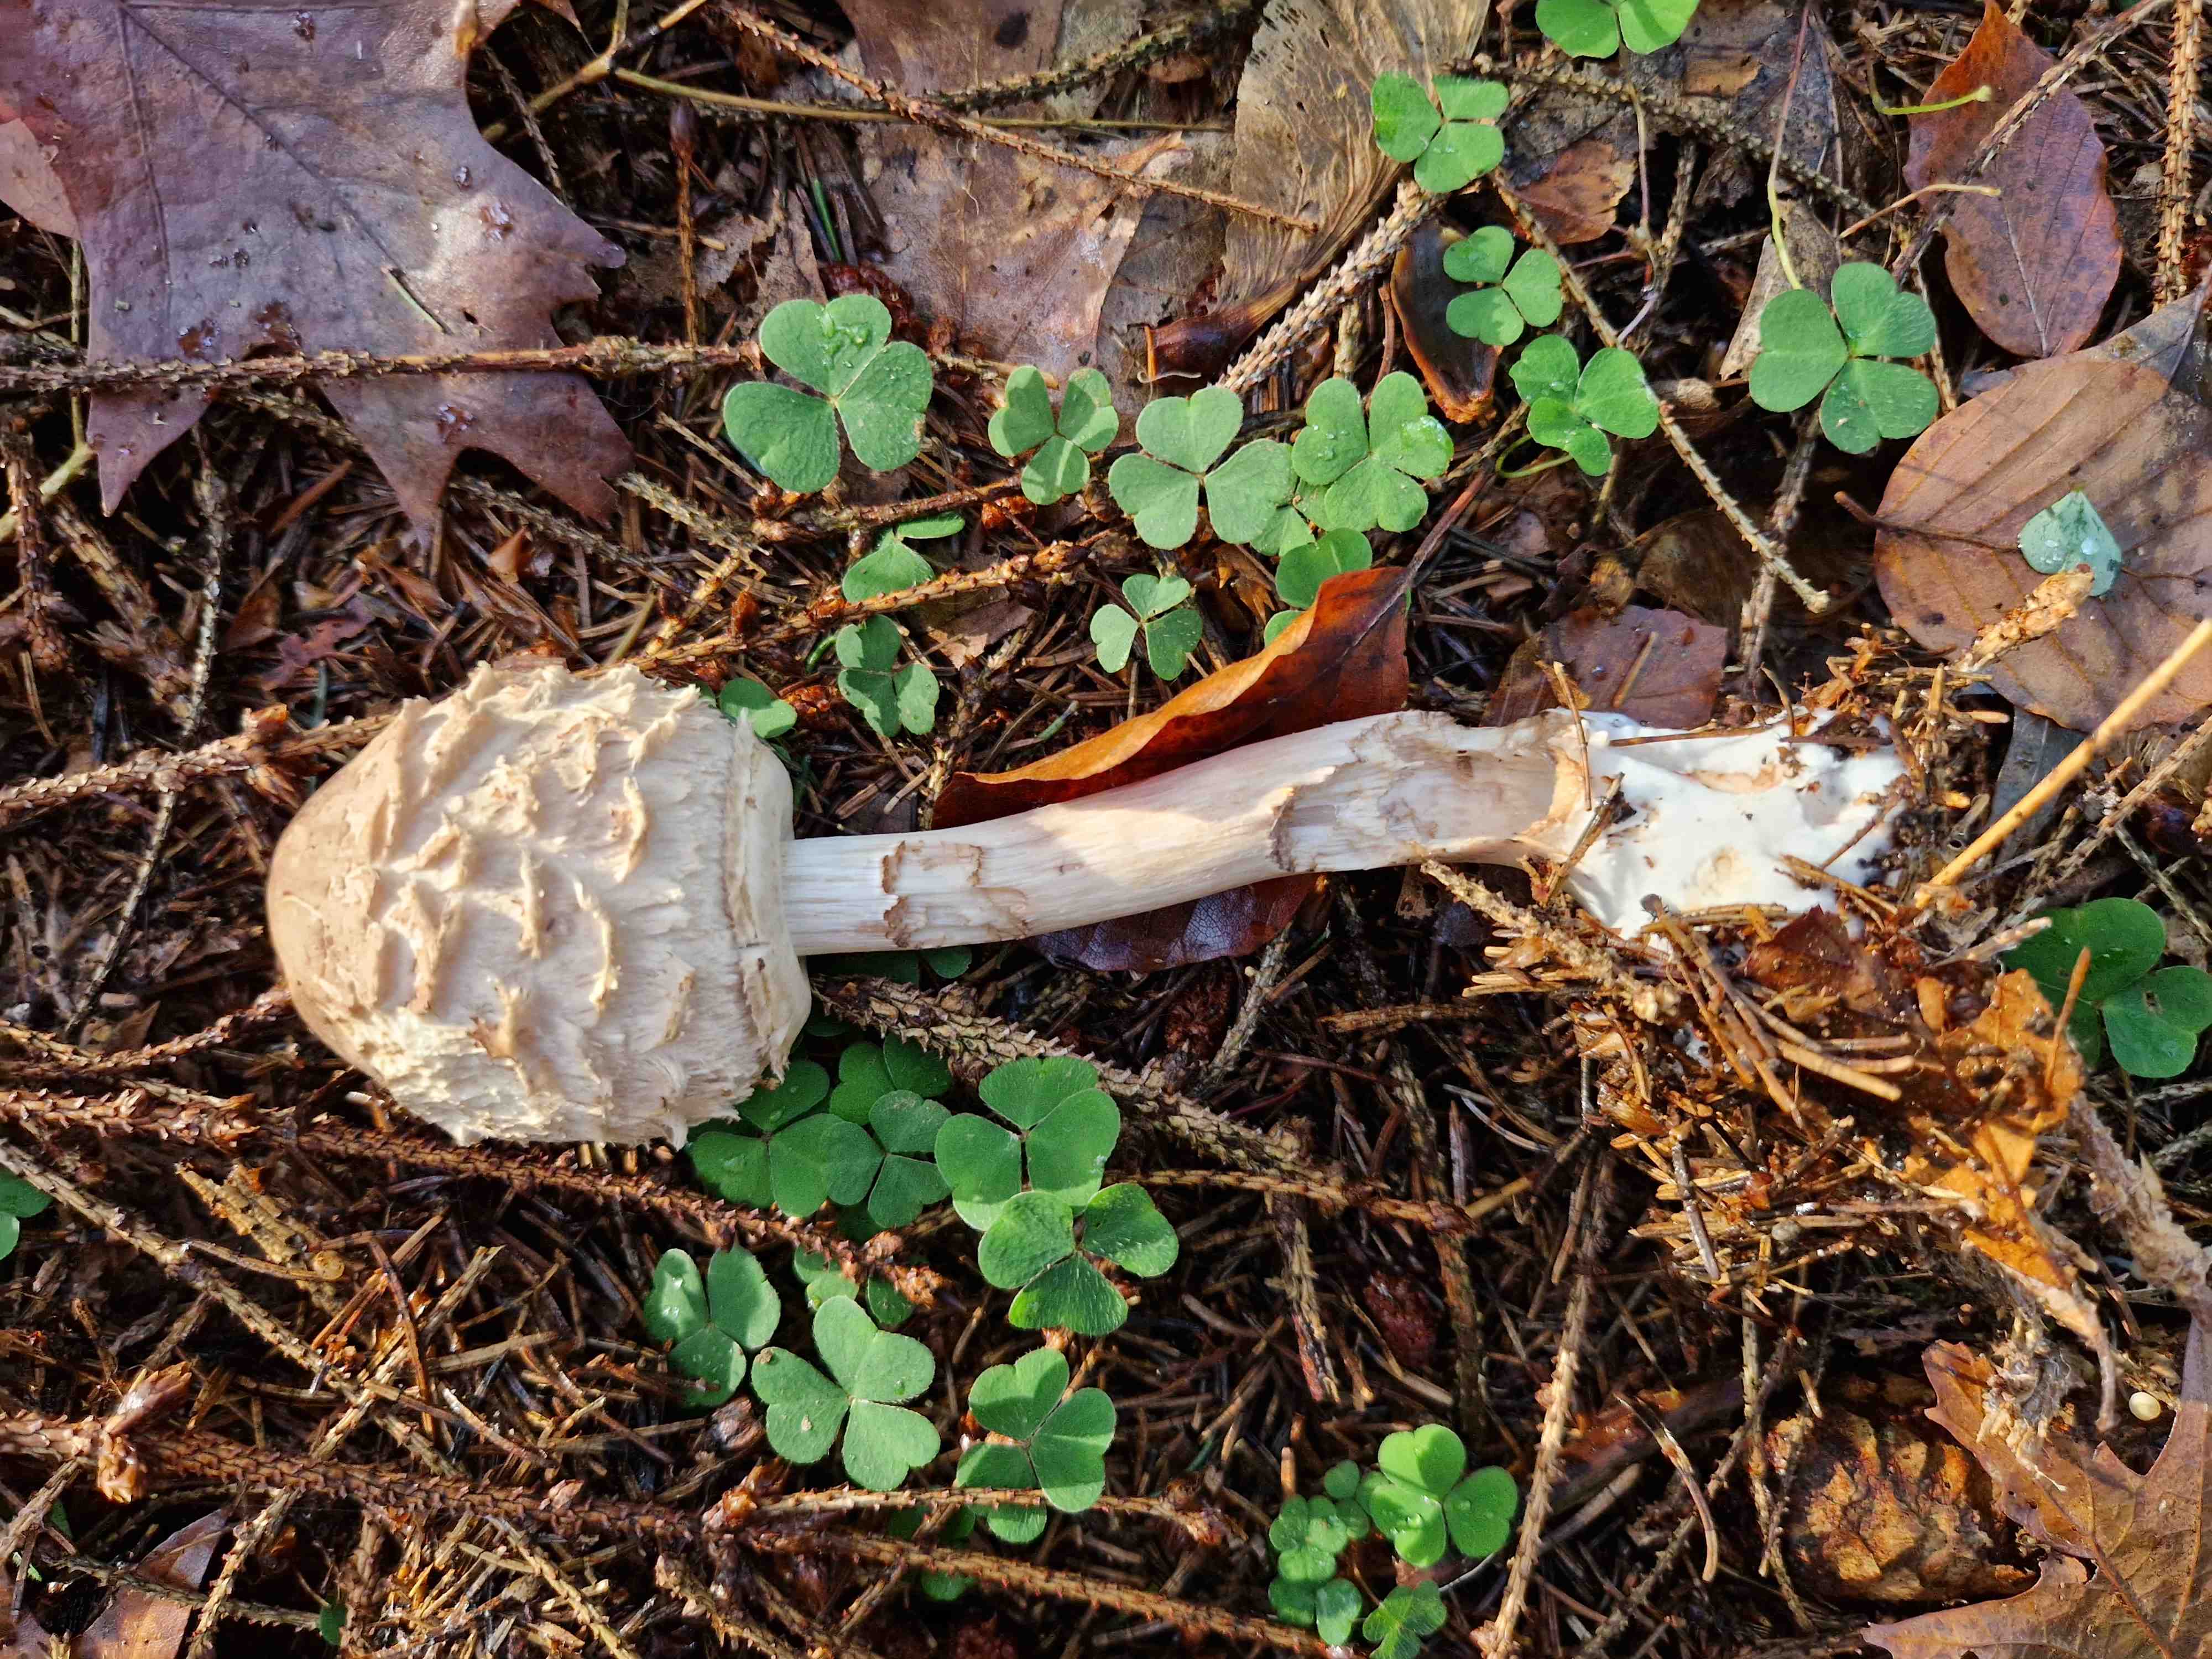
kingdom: Fungi
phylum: Basidiomycota
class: Agaricomycetes
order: Agaricales
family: Agaricaceae
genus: Chlorophyllum
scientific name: Chlorophyllum olivieri
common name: almindelig rabarberhat
